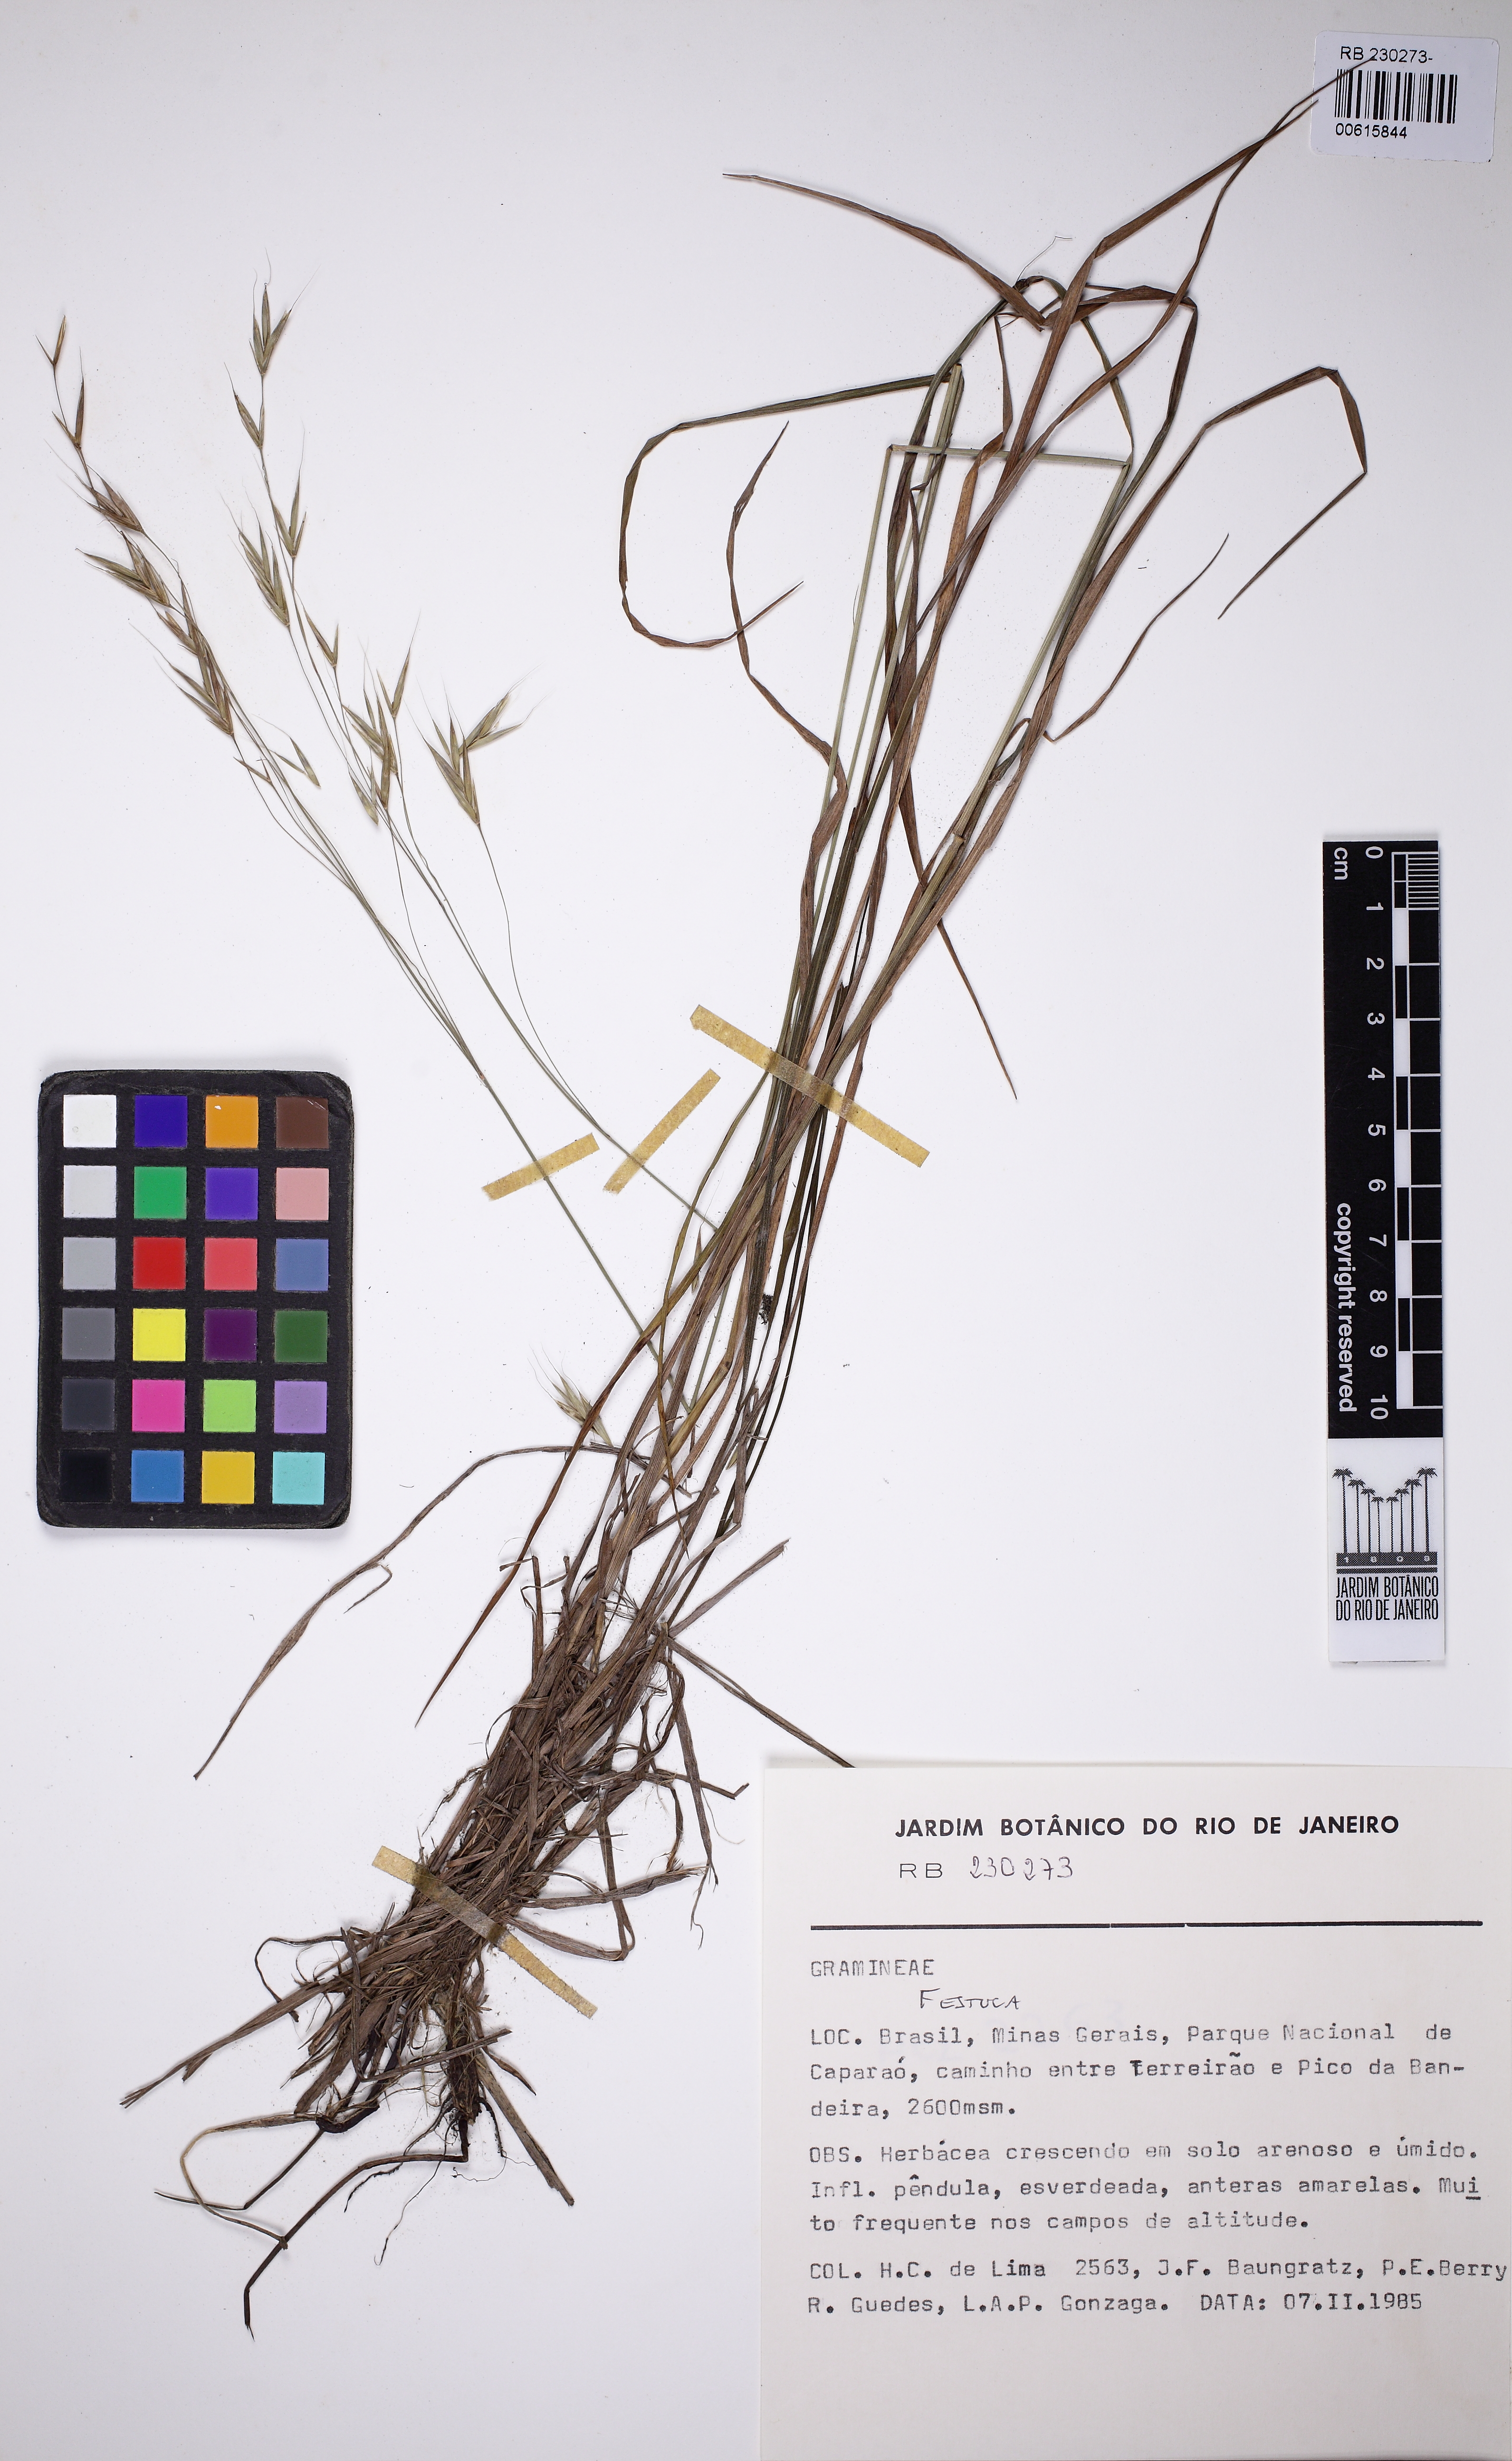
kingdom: Plantae
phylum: Tracheophyta
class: Liliopsida
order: Poales
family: Poaceae
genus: Festuca
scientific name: Festuca
